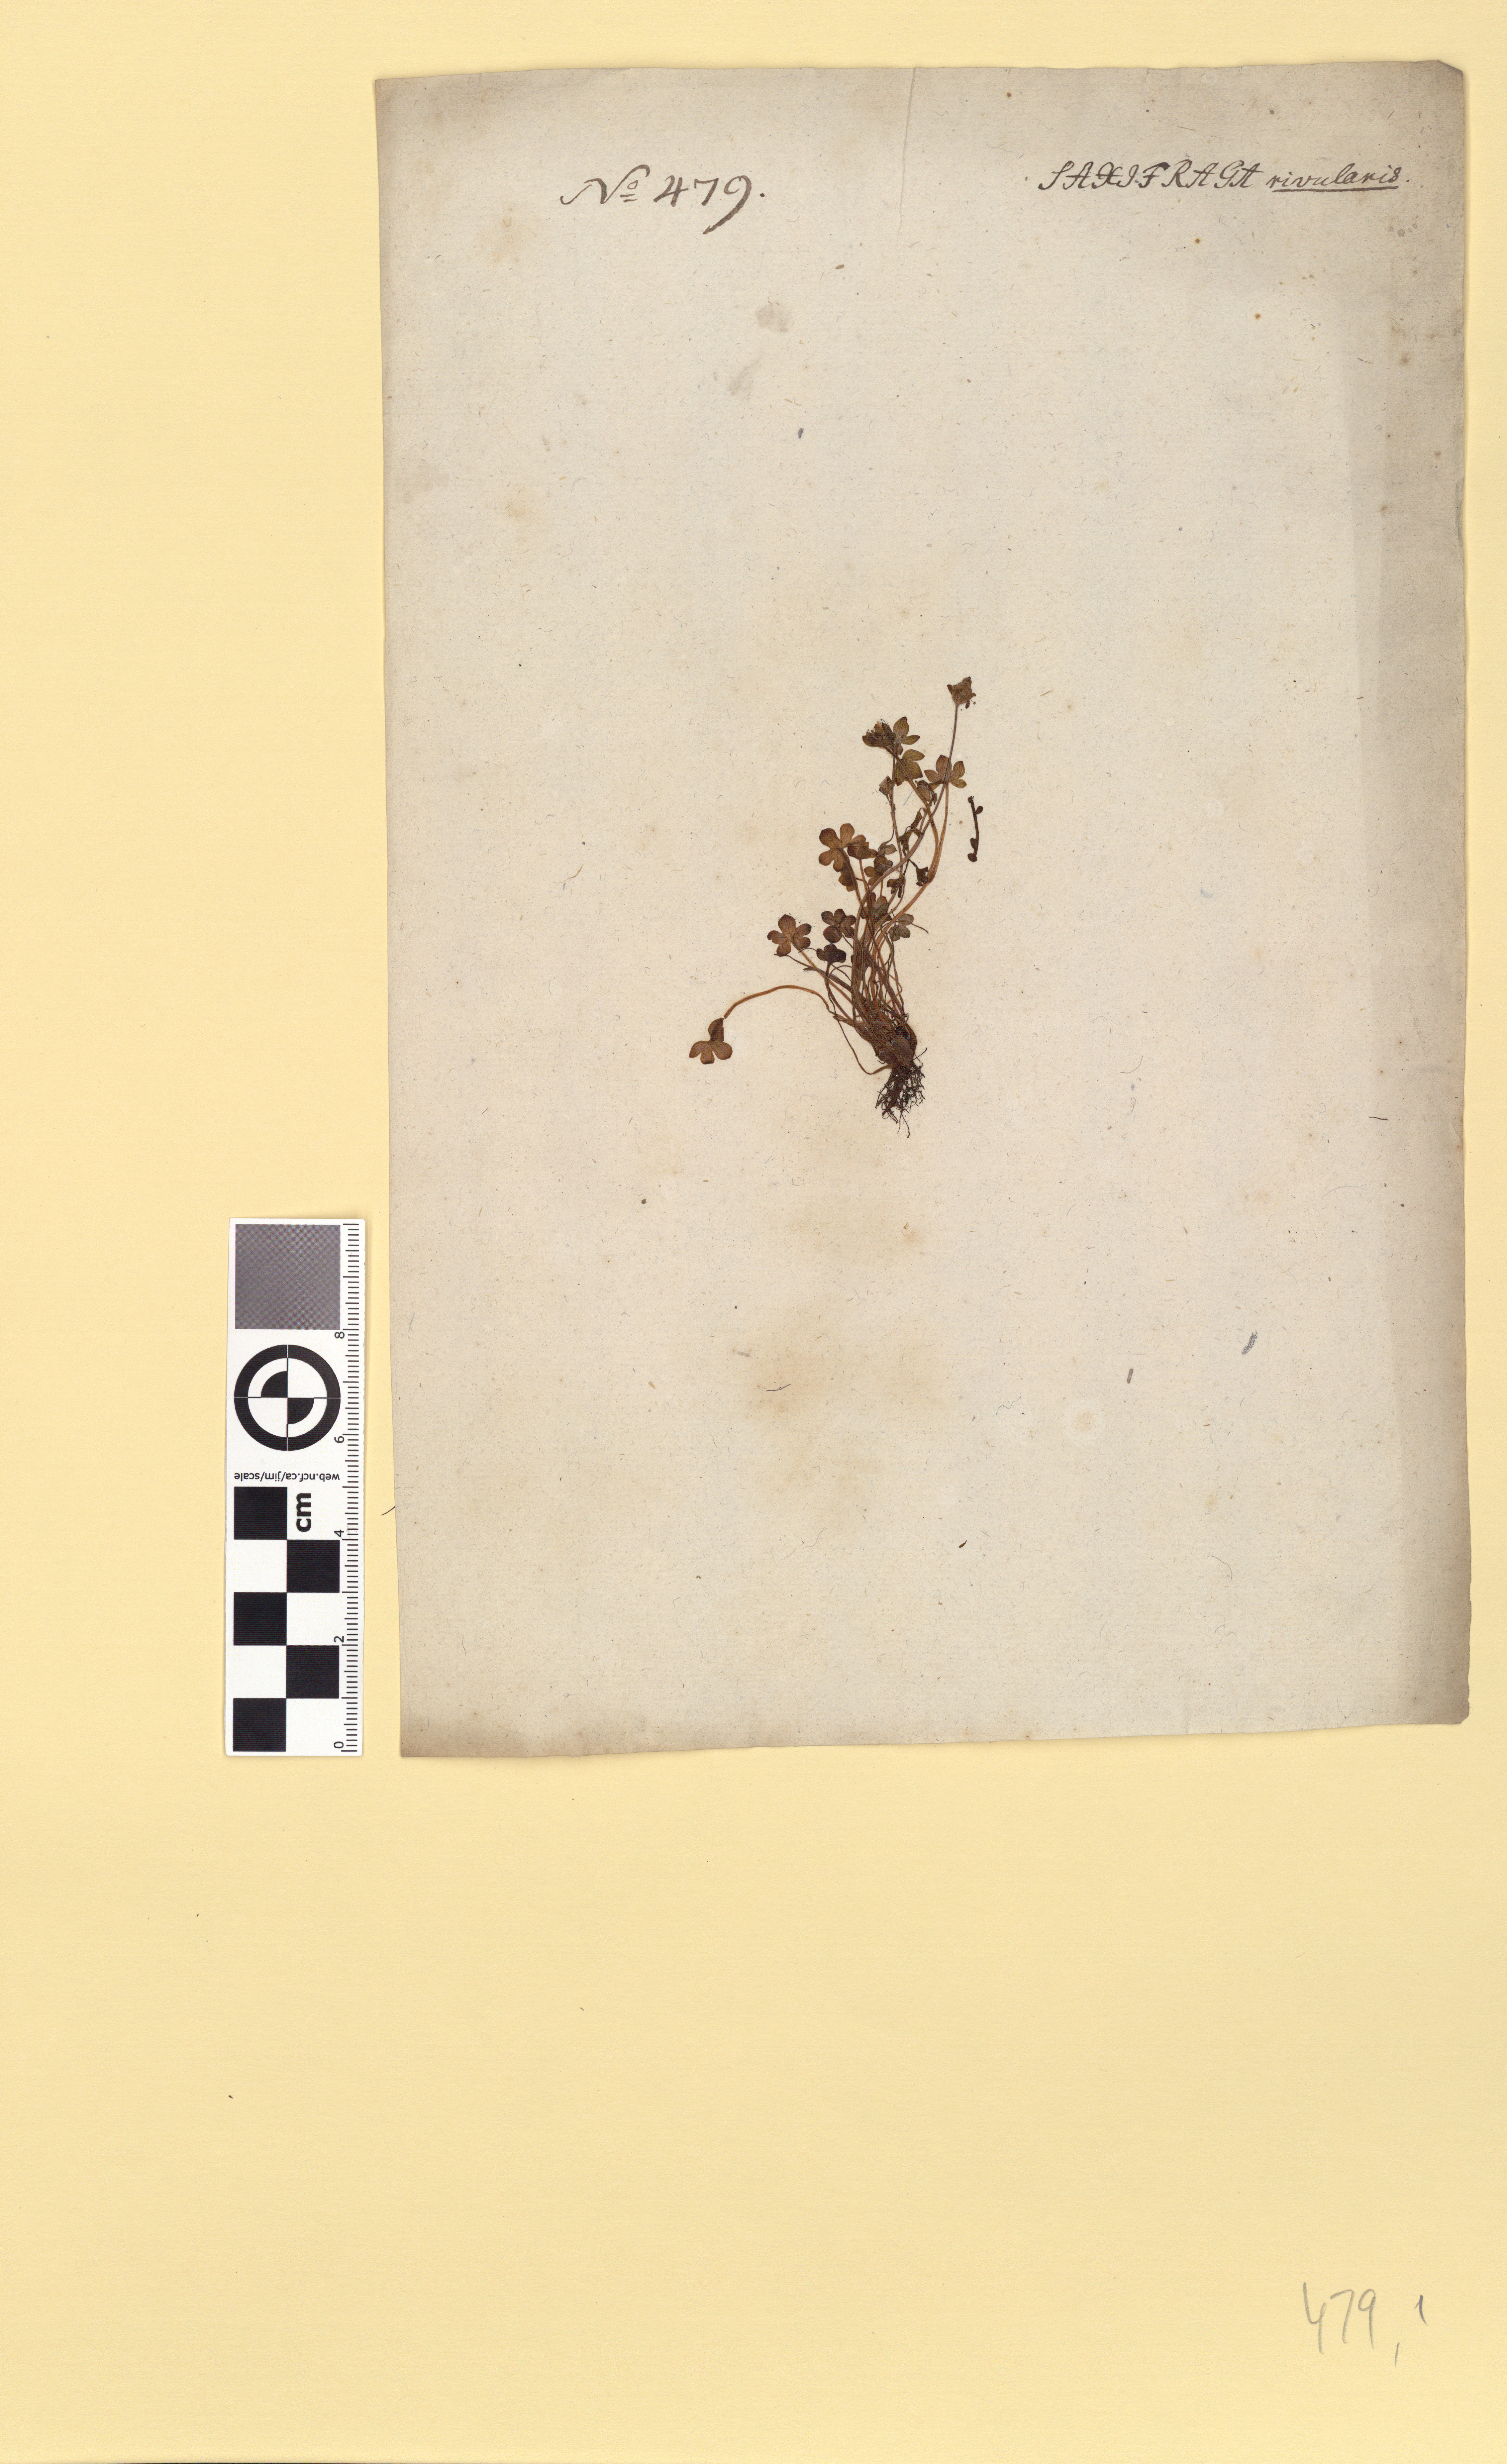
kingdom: Plantae
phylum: Tracheophyta
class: Magnoliopsida
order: Saxifragales
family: Saxifragaceae
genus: Saxifraga
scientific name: Saxifraga rivularis
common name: Highland saxifrage
